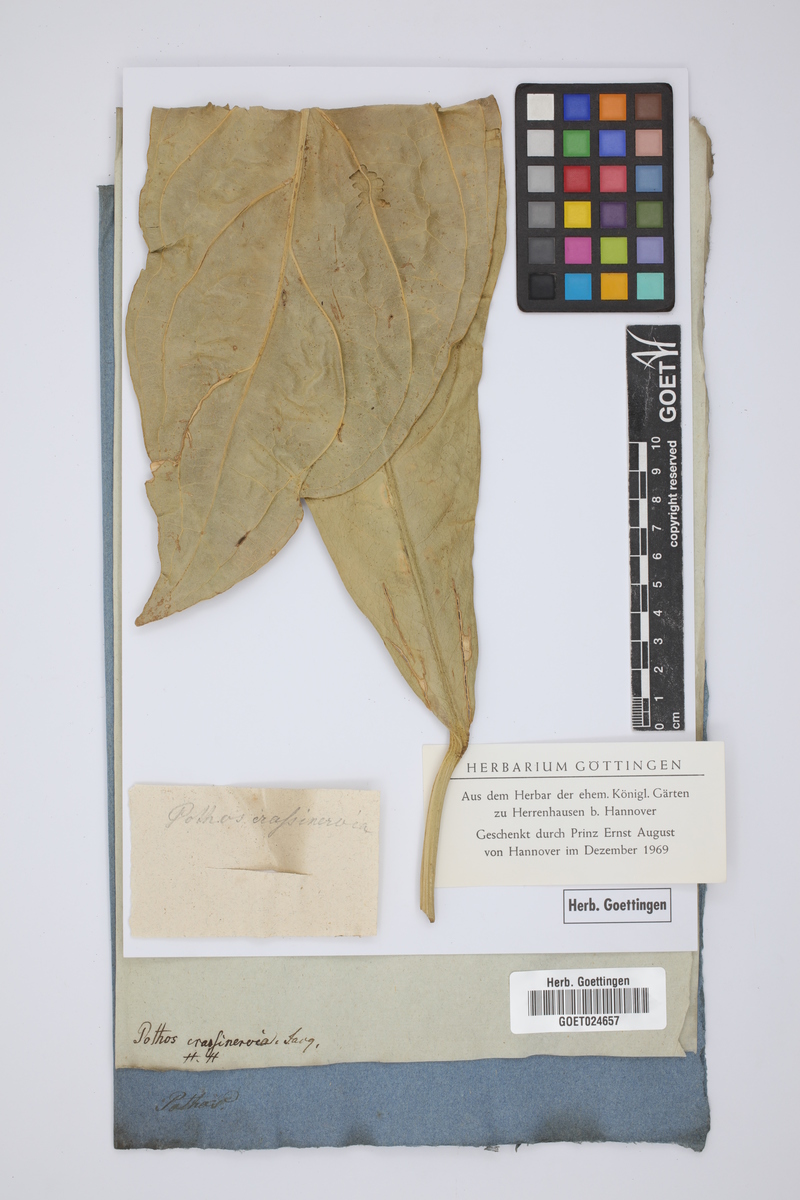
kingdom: Plantae
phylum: Tracheophyta
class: Liliopsida
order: Alismatales
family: Araceae
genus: Anthurium
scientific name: Anthurium crassinervium
